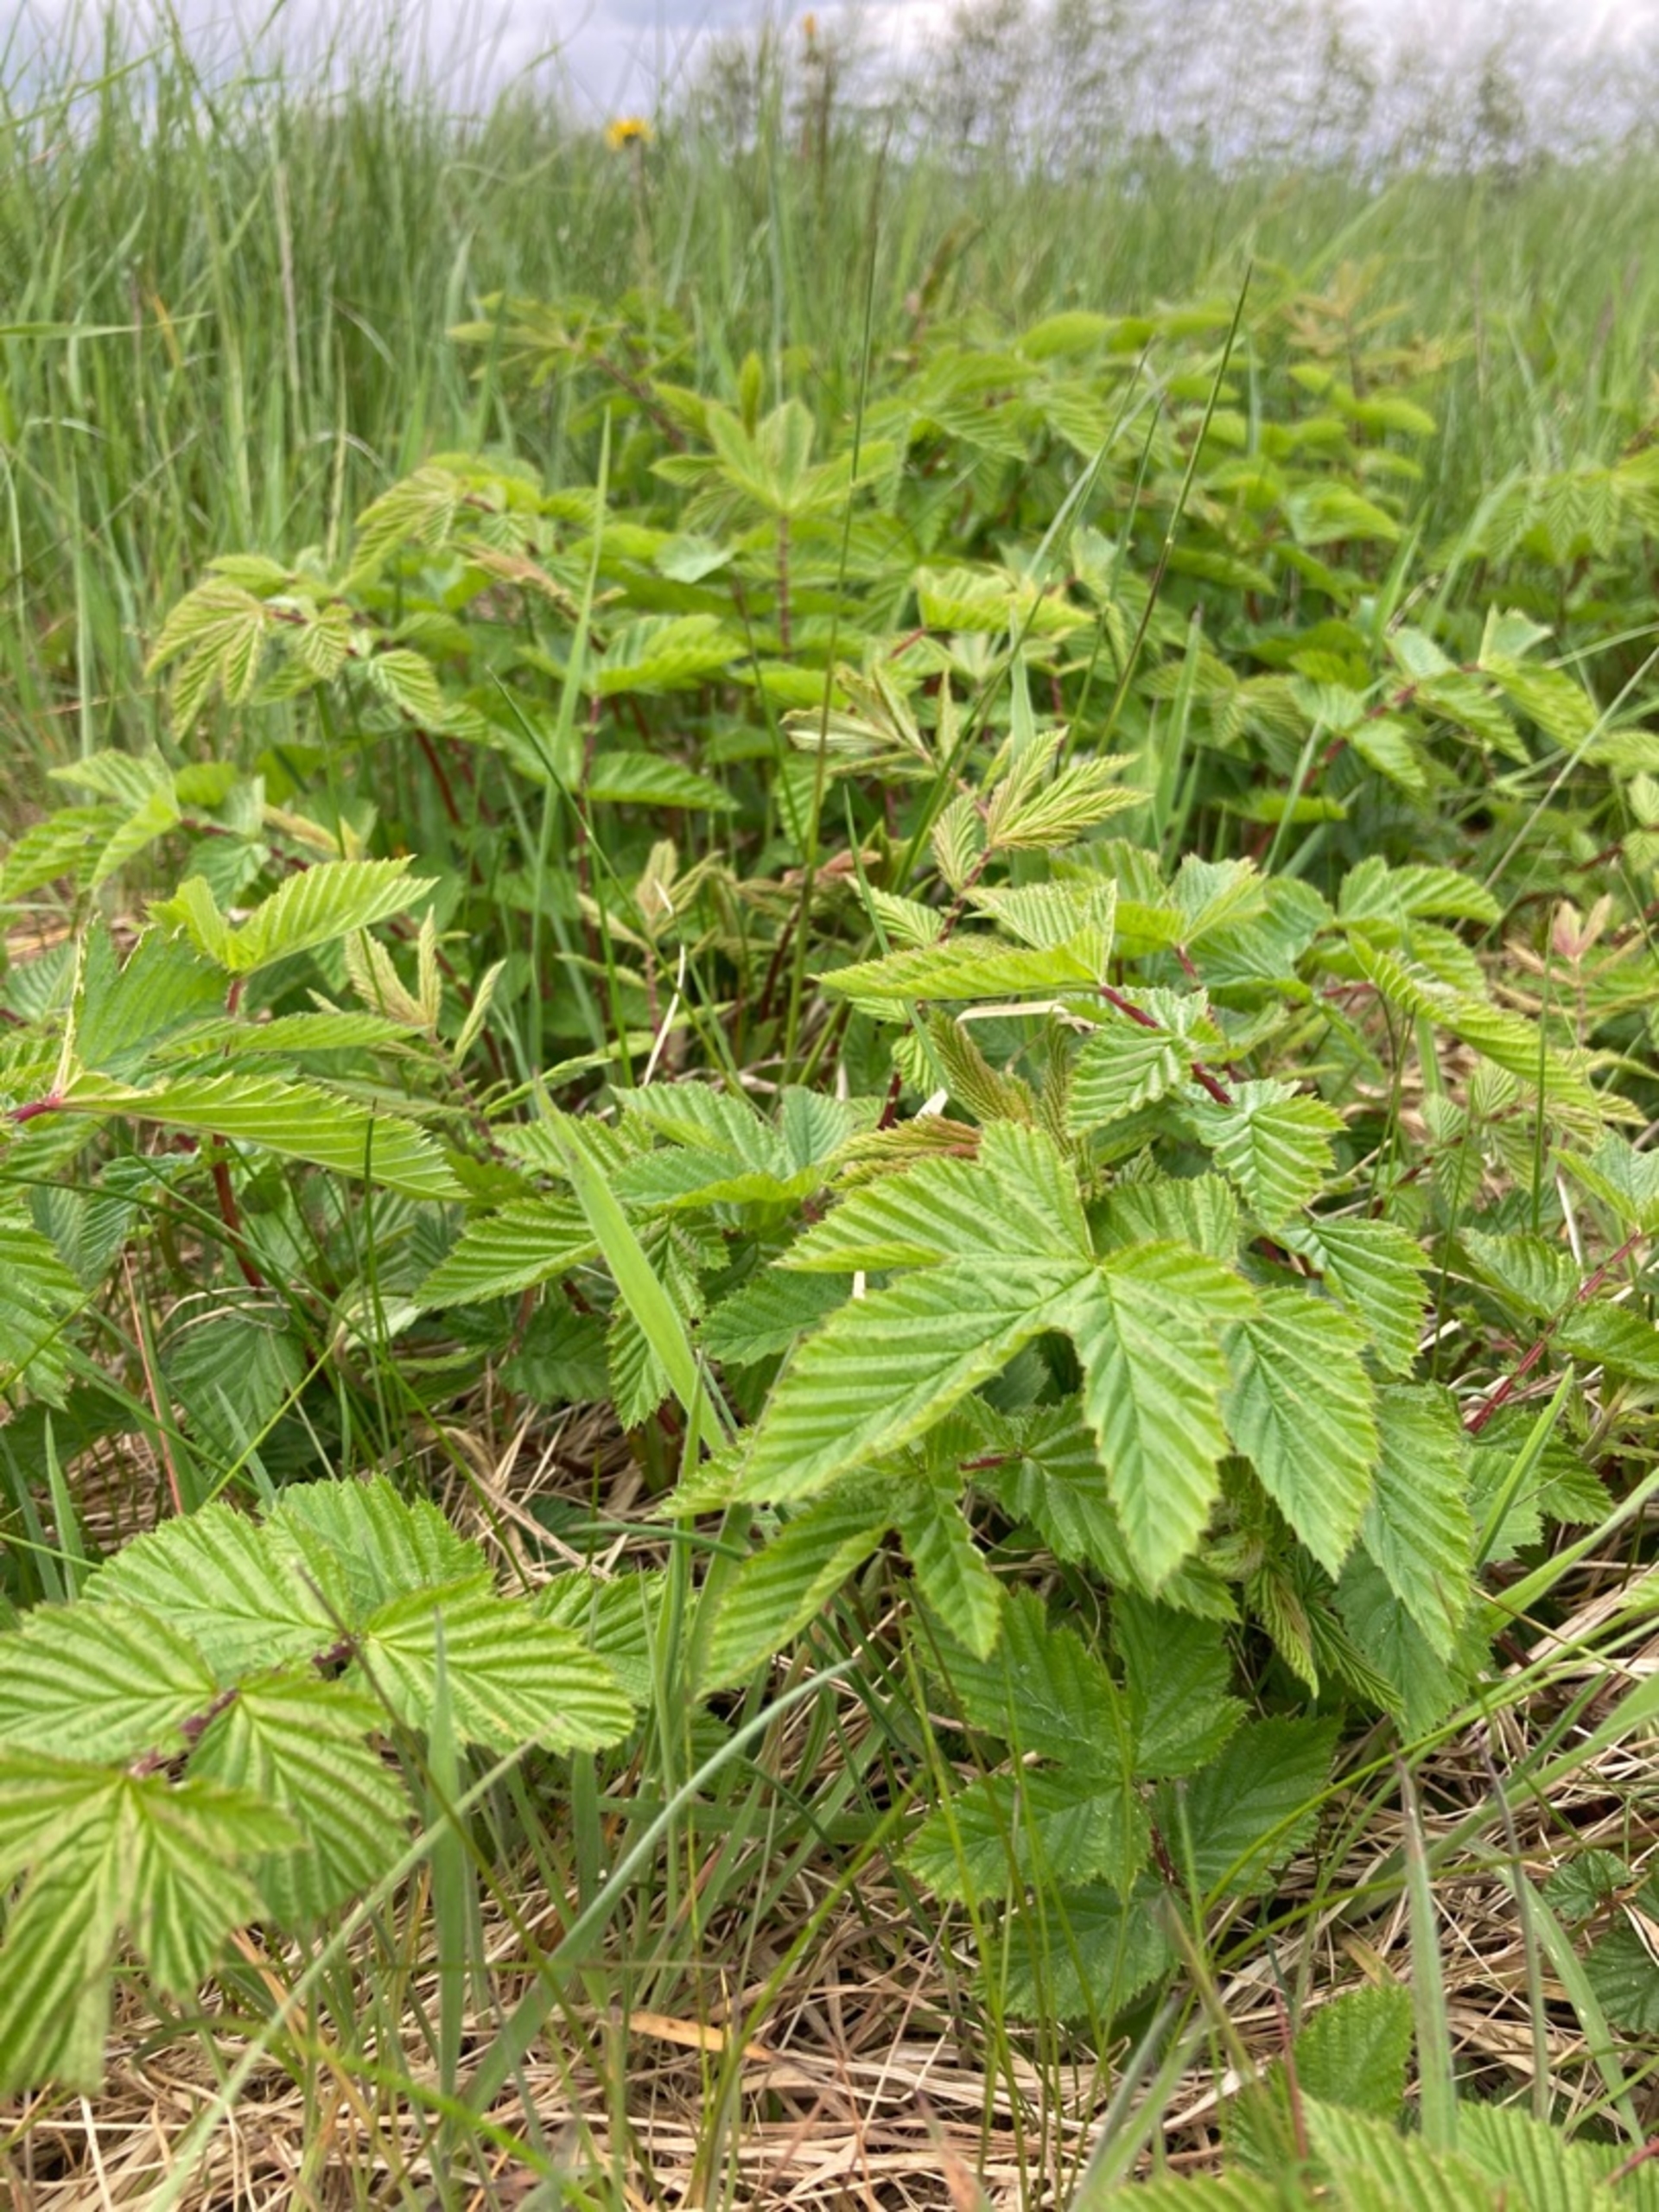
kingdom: Plantae
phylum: Tracheophyta
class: Magnoliopsida
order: Rosales
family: Rosaceae
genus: Filipendula
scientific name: Filipendula ulmaria
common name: Almindelig mjødurt
